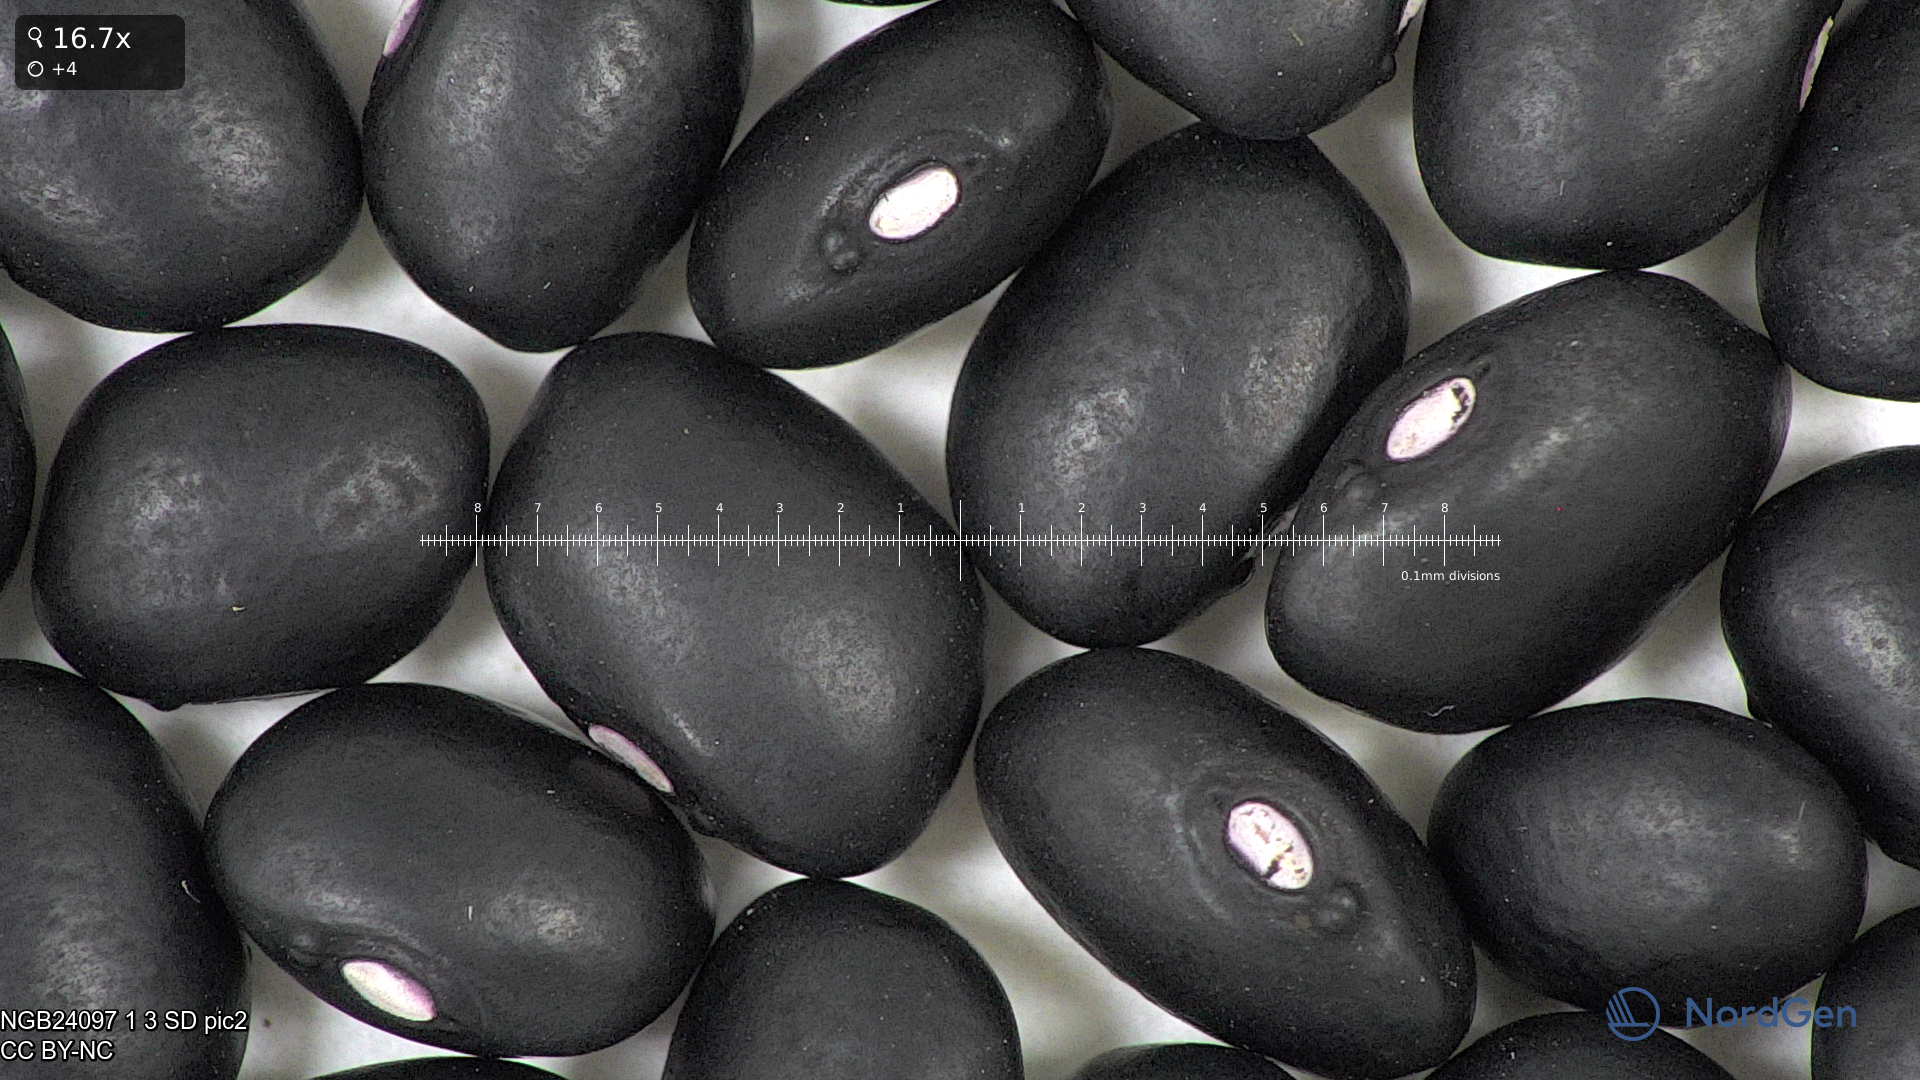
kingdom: Plantae
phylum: Tracheophyta
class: Magnoliopsida
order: Fabales
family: Fabaceae
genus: Phaseolus
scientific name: Phaseolus vulgaris
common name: Bean
